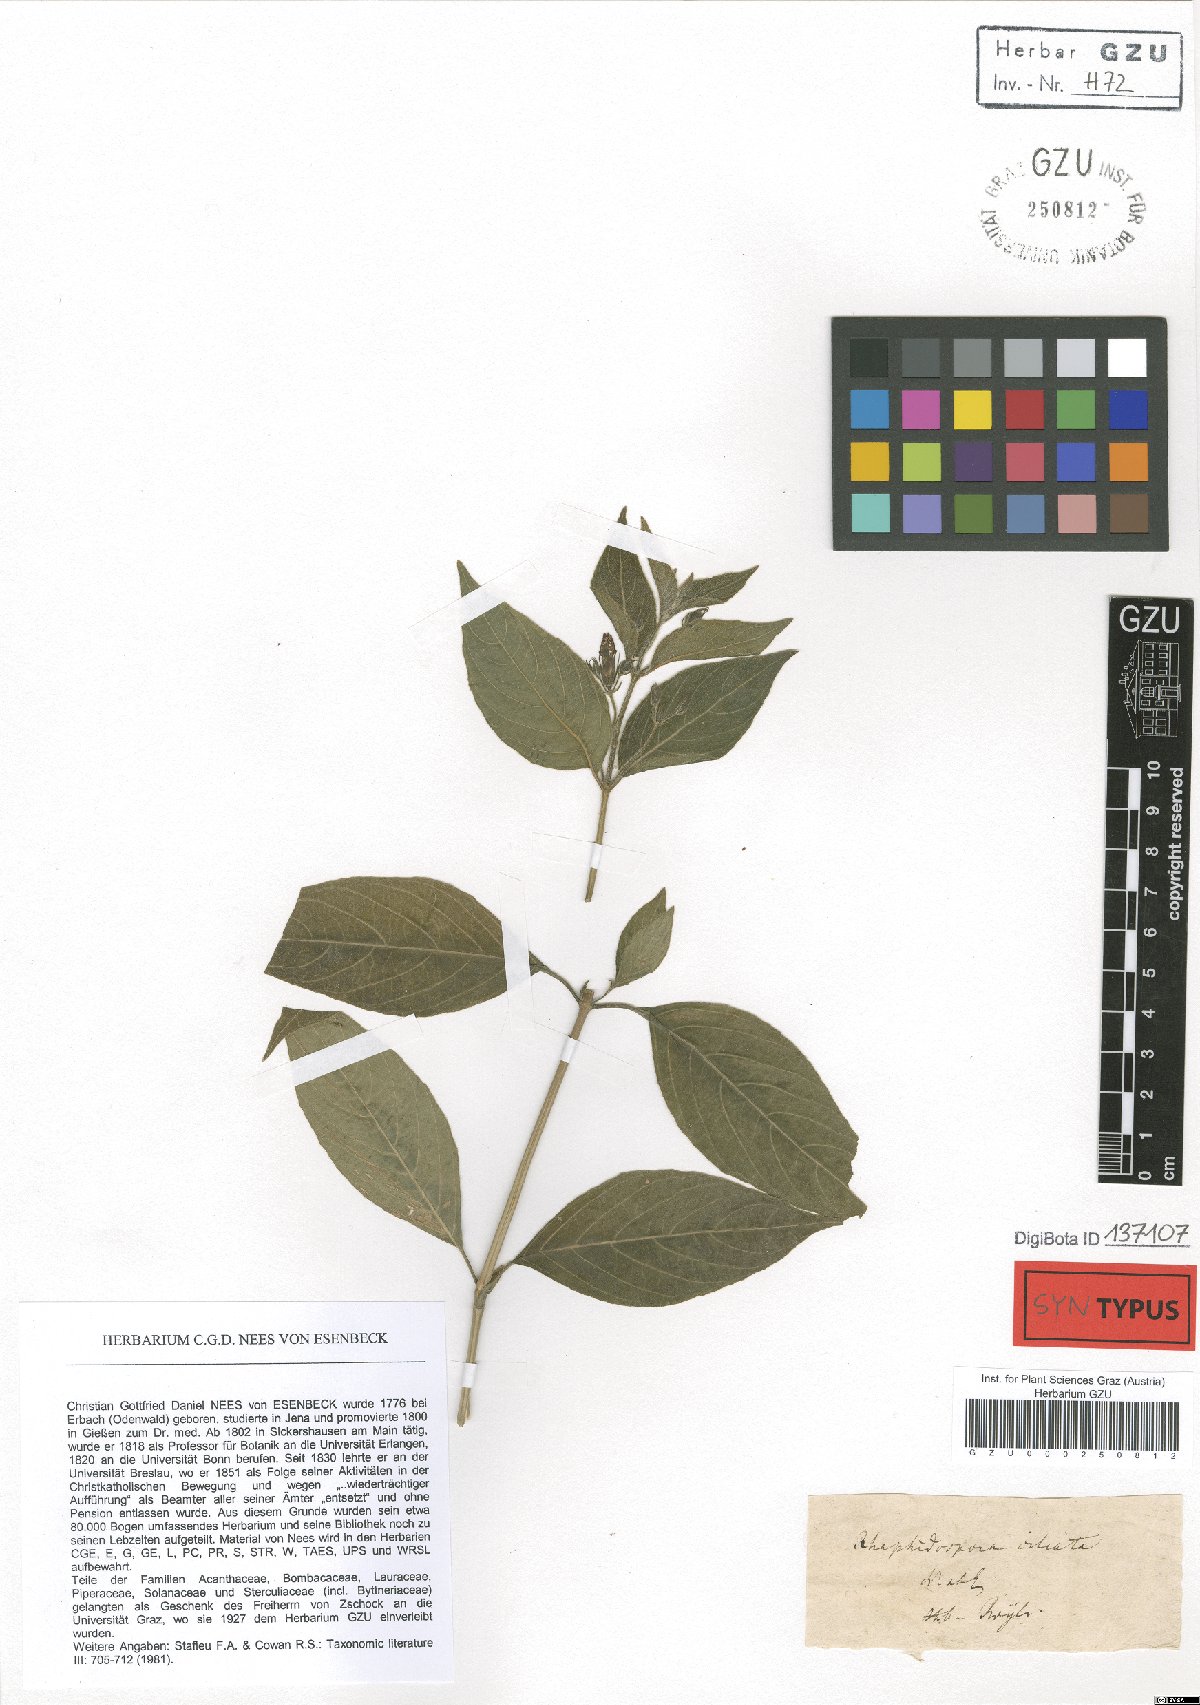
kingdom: Plantae
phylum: Tracheophyta
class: Magnoliopsida
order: Lamiales
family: Acanthaceae
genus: Justicia
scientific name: Justicia pubigera
